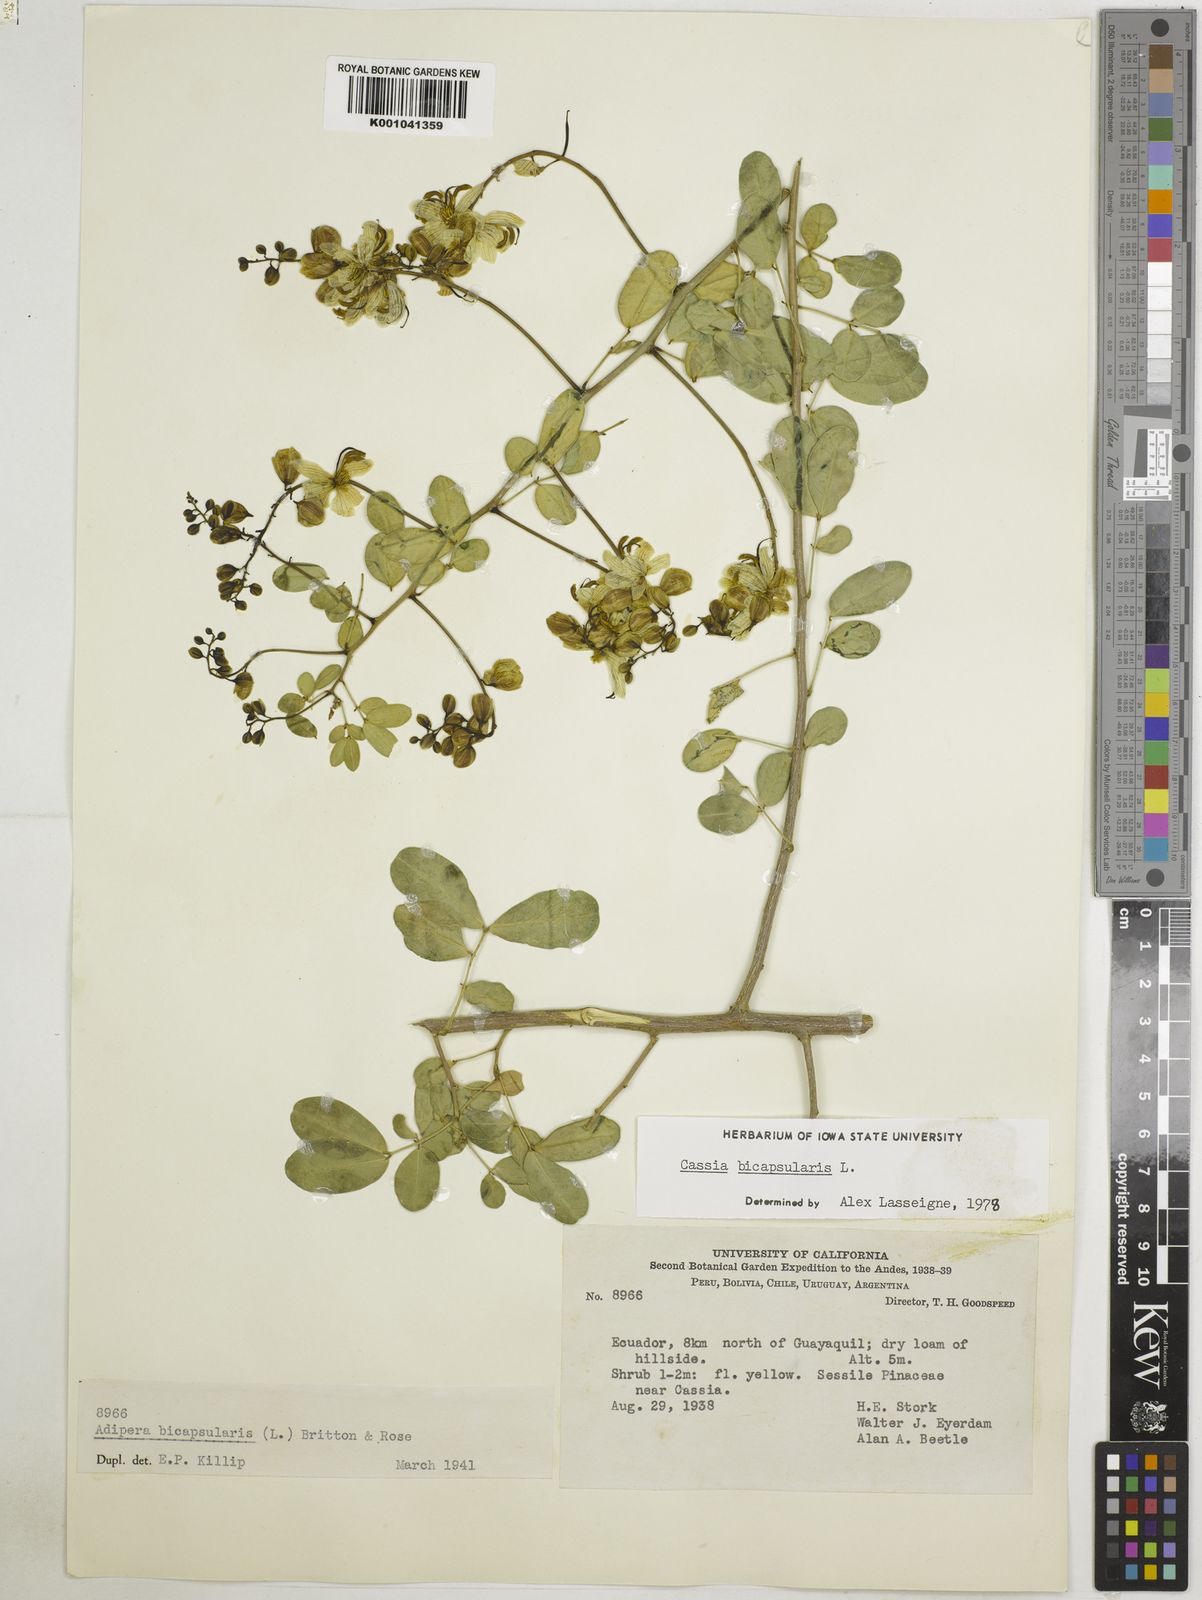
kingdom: Plantae
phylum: Tracheophyta
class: Magnoliopsida
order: Fabales
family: Fabaceae
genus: Senna
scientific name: Senna bicapsularis
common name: Christmasbush
